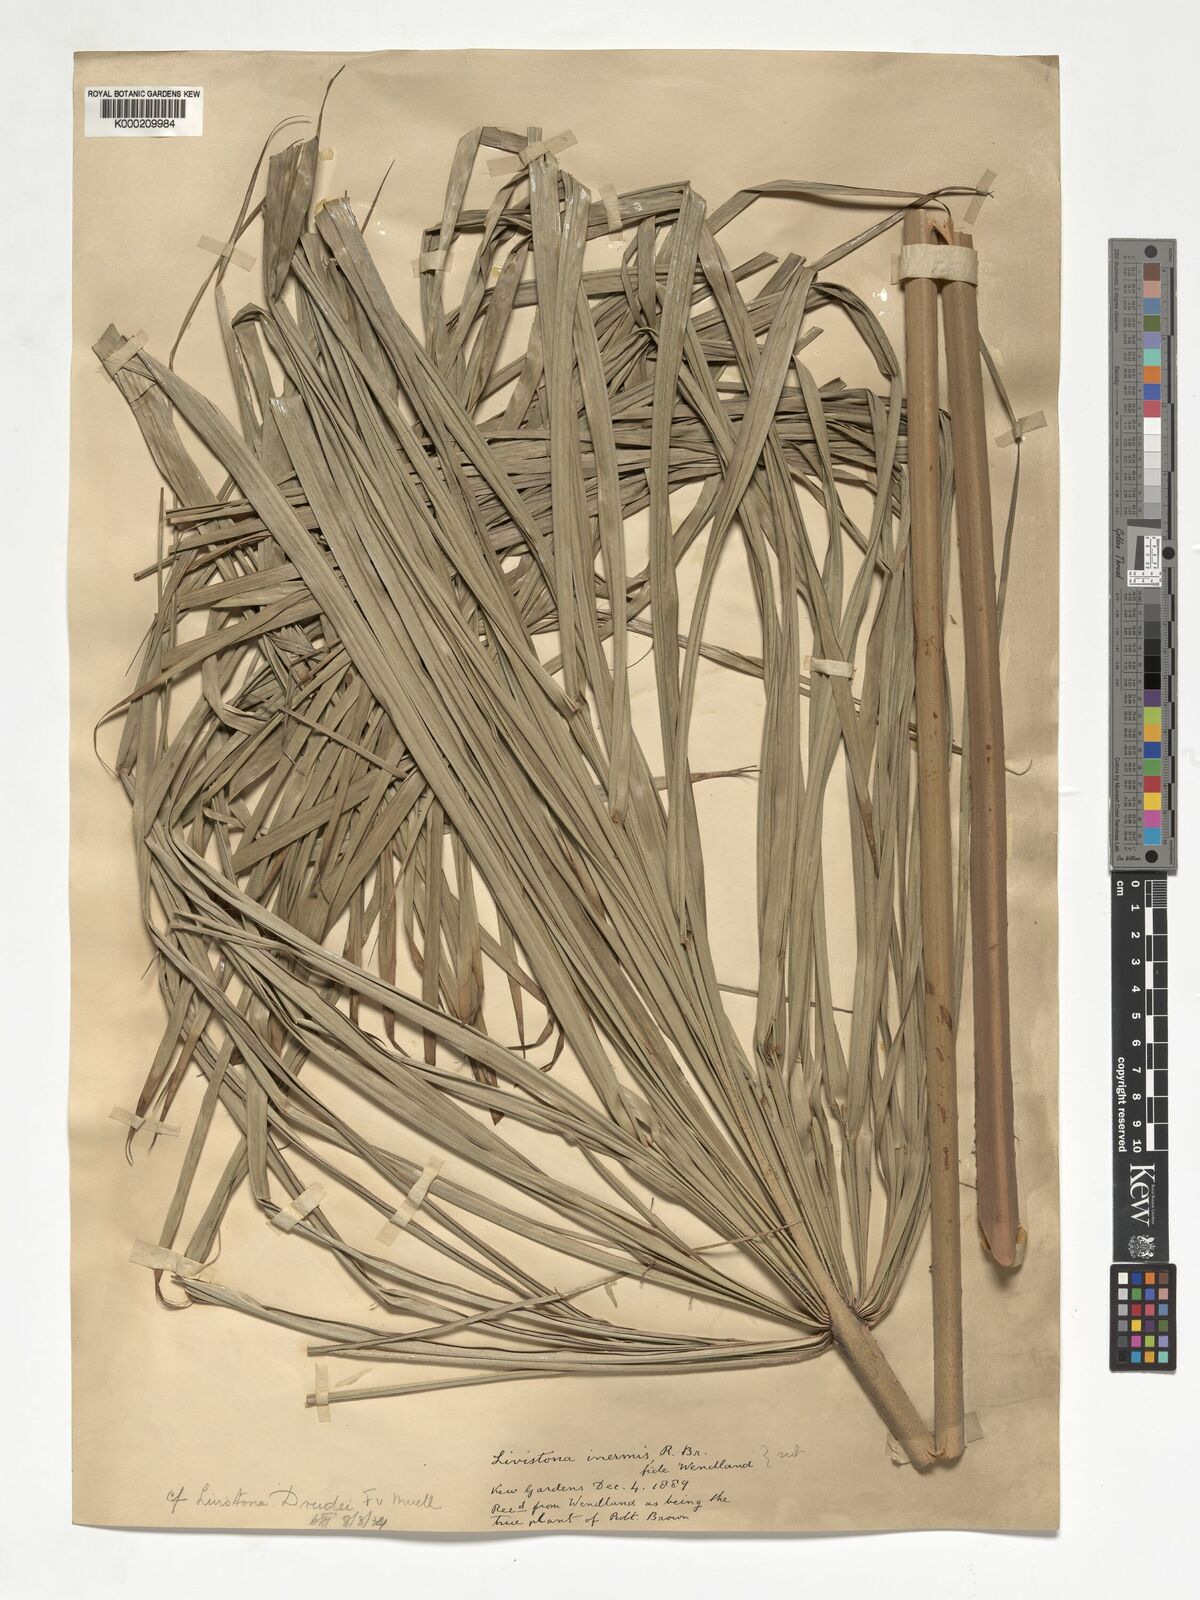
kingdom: Plantae
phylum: Tracheophyta
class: Liliopsida
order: Arecales
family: Arecaceae
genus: Livistona
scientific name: Livistona drudei
